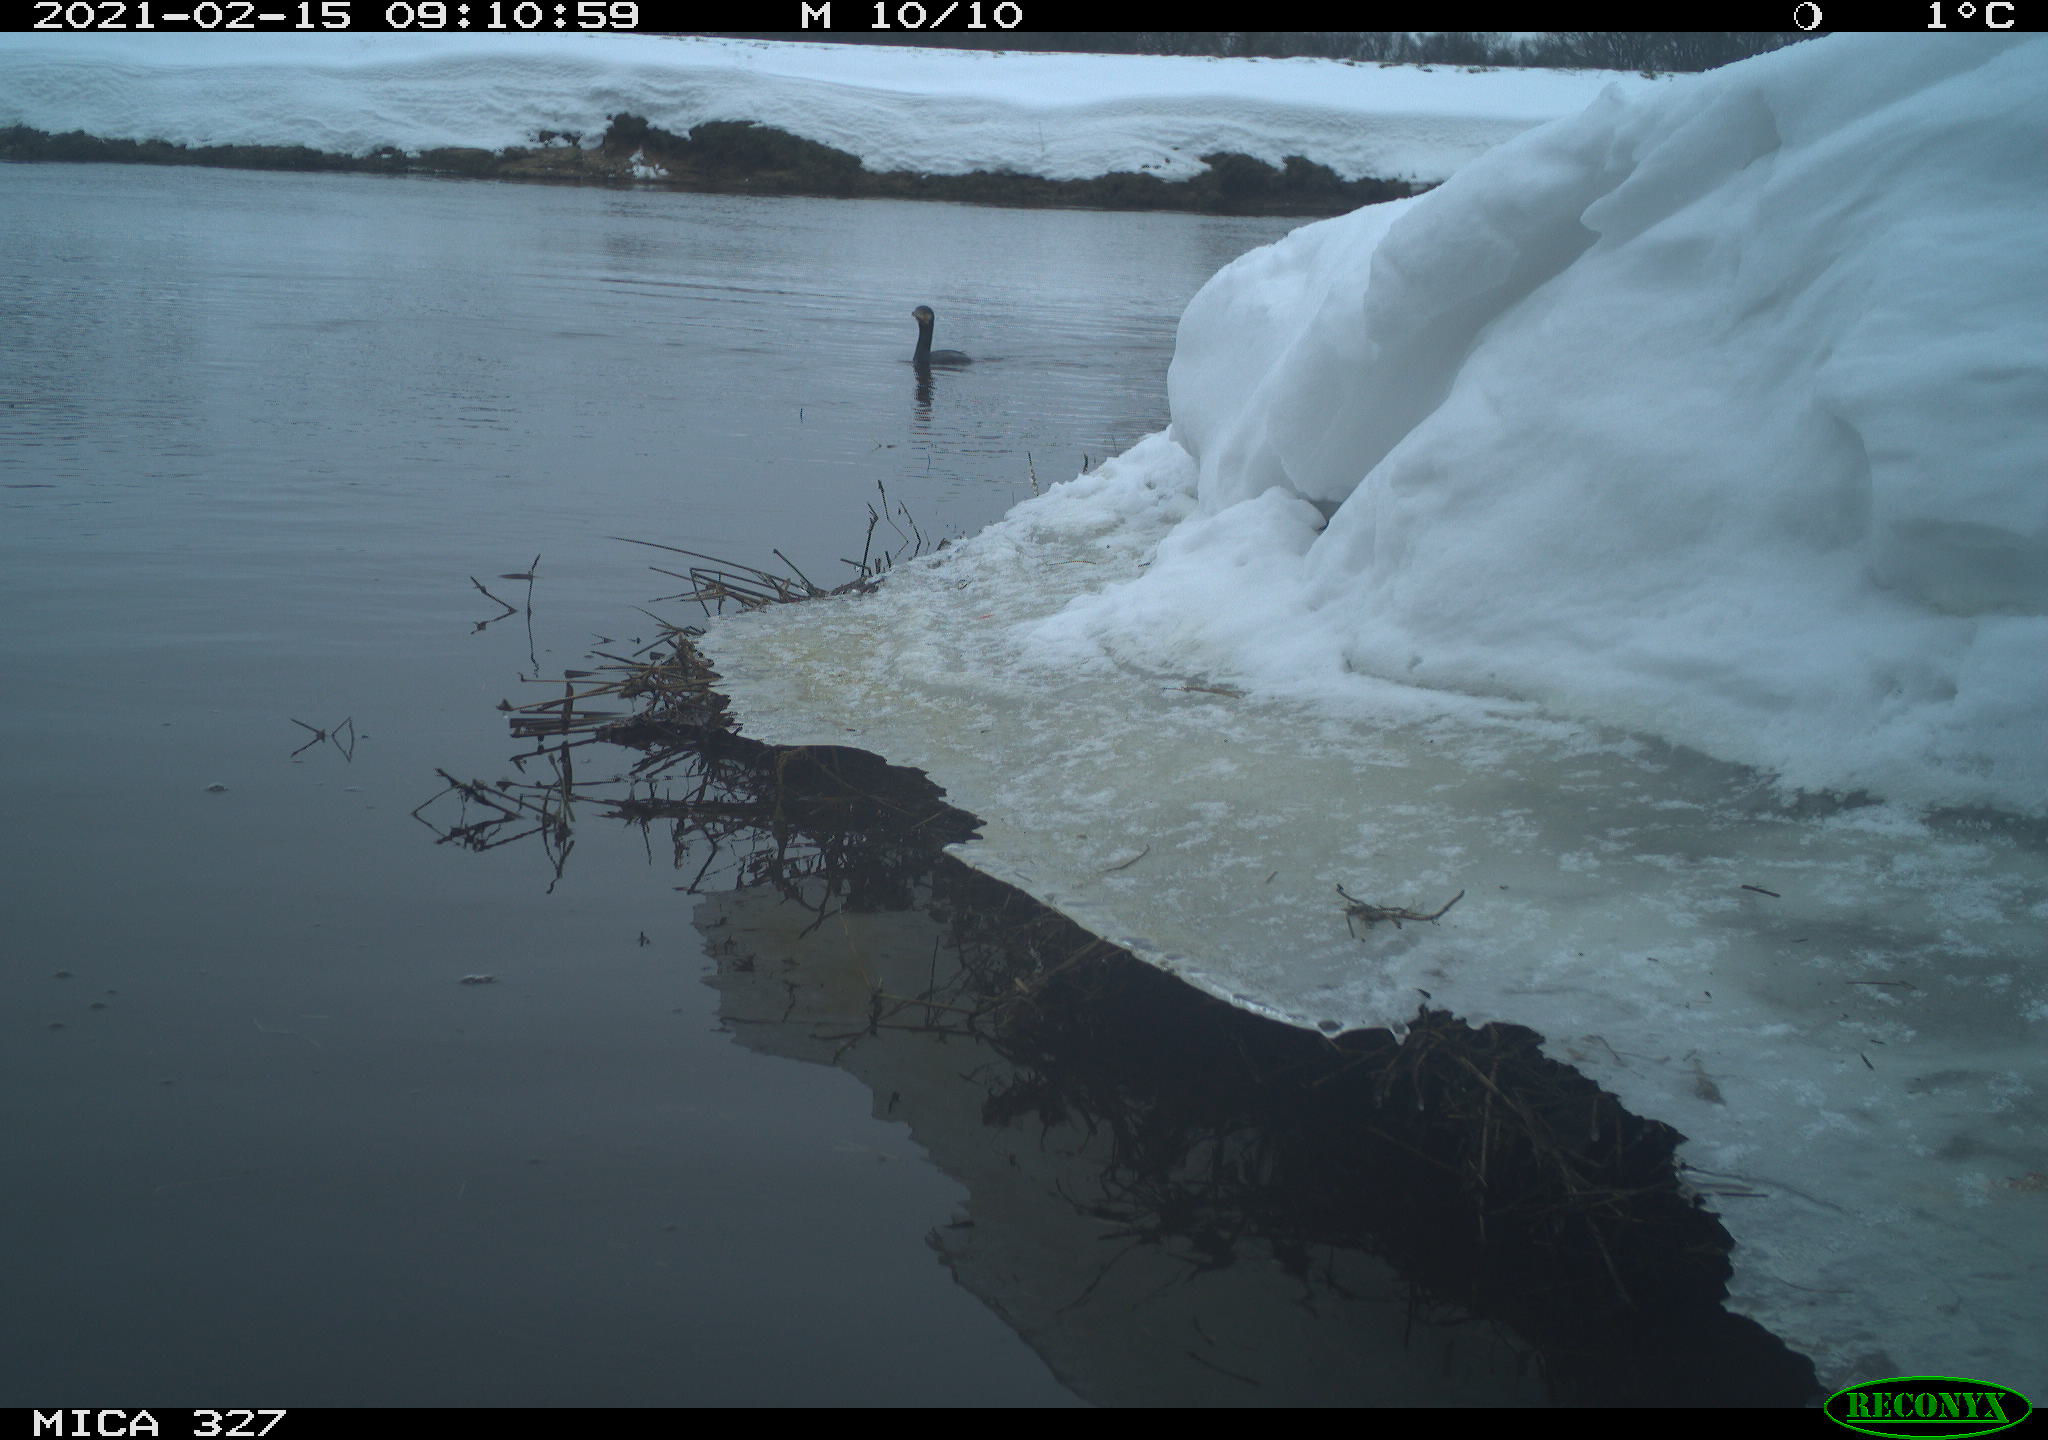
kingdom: Animalia
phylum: Chordata
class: Aves
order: Suliformes
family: Phalacrocoracidae
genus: Phalacrocorax
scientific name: Phalacrocorax carbo
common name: Great cormorant
